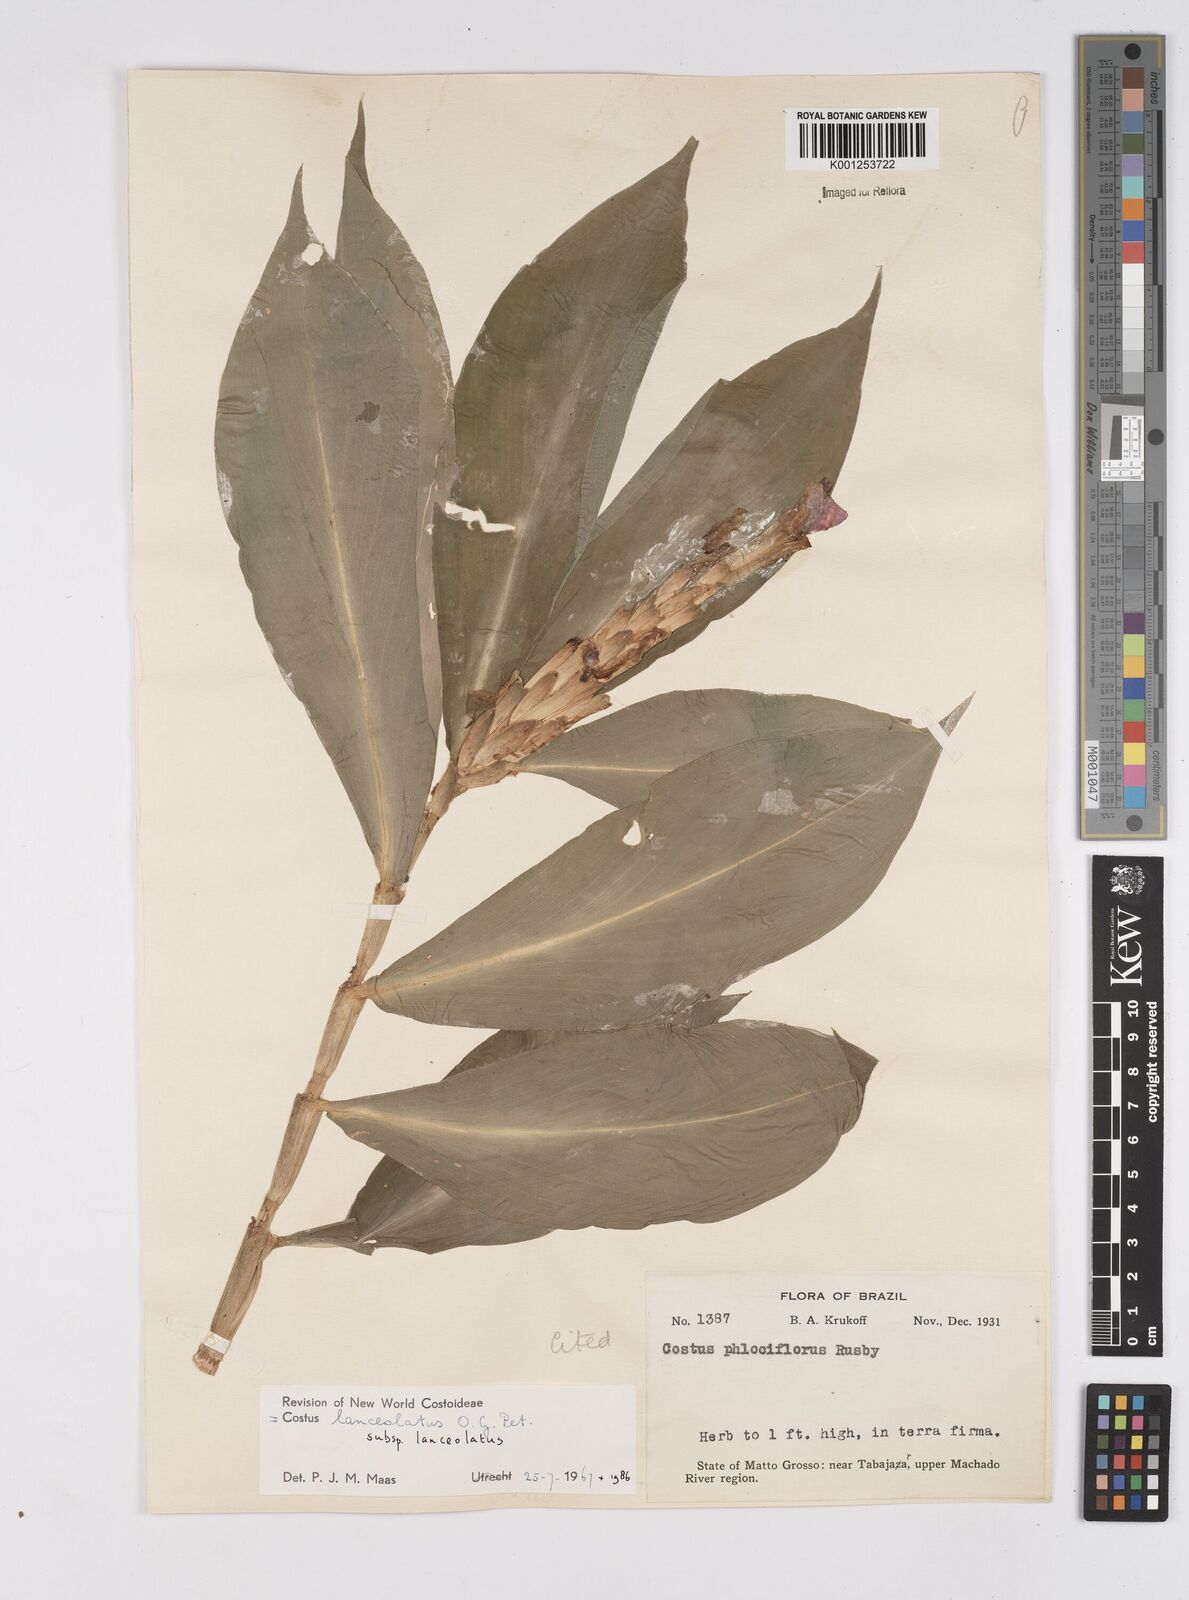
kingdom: Plantae
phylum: Tracheophyta
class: Liliopsida
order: Zingiberales
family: Costaceae
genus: Chamaecostus
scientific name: Chamaecostus lanceolatus
